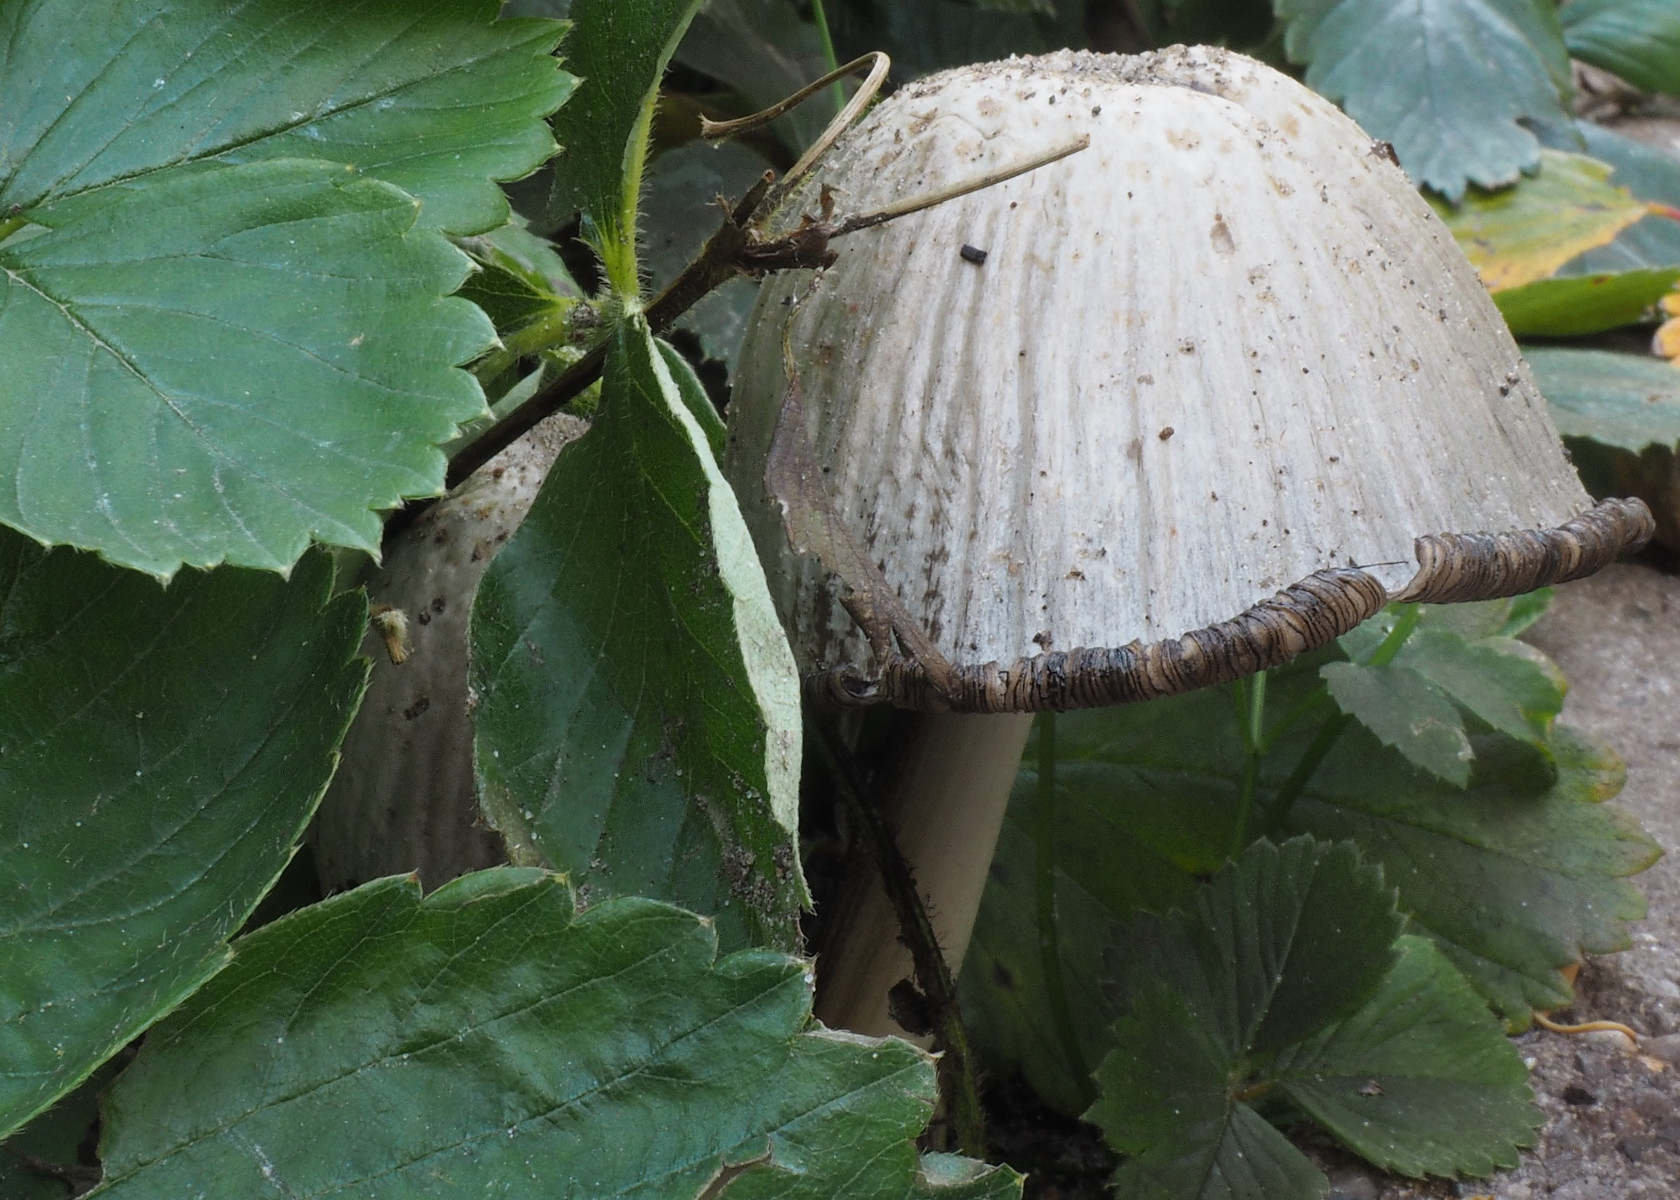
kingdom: Fungi
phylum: Basidiomycota
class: Agaricomycetes
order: Agaricales
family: Psathyrellaceae
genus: Coprinopsis
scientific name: Coprinopsis atramentaria
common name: almindelig blækhat
